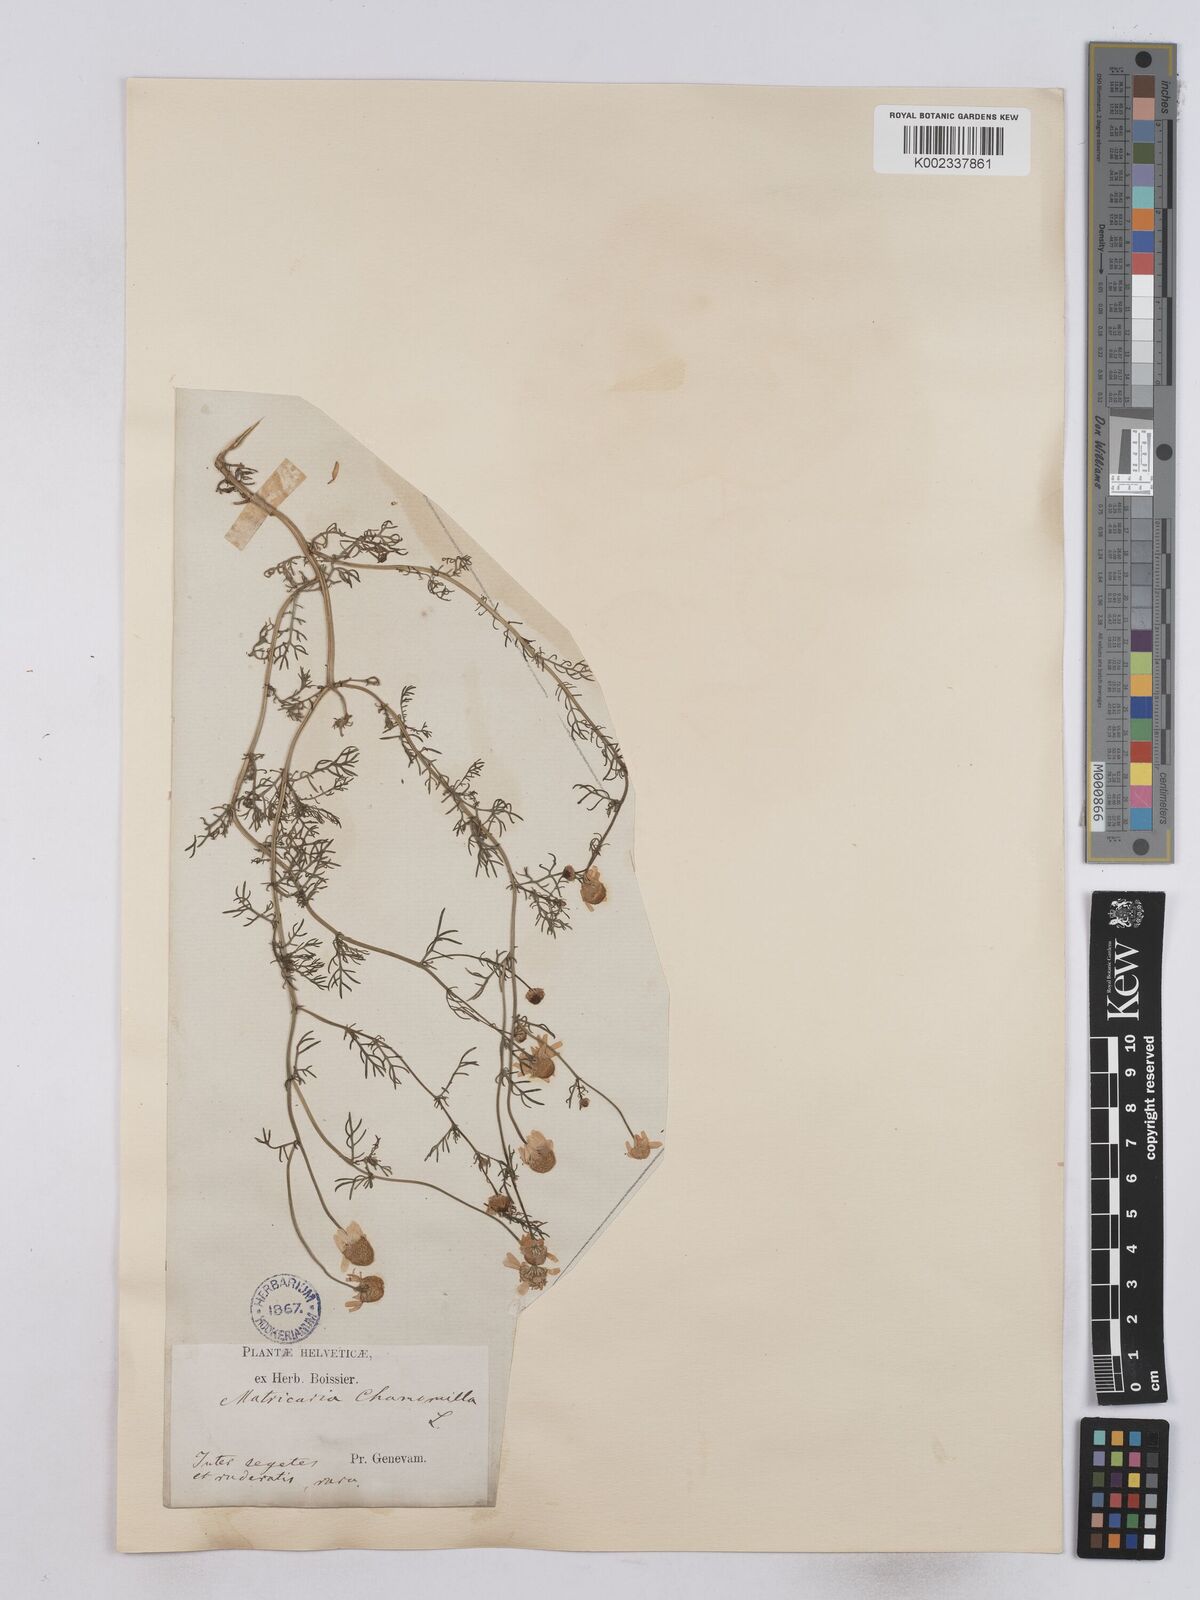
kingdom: Plantae
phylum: Tracheophyta
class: Magnoliopsida
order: Asterales
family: Asteraceae
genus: Matricaria
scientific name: Matricaria chamomilla
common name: Scented mayweed
